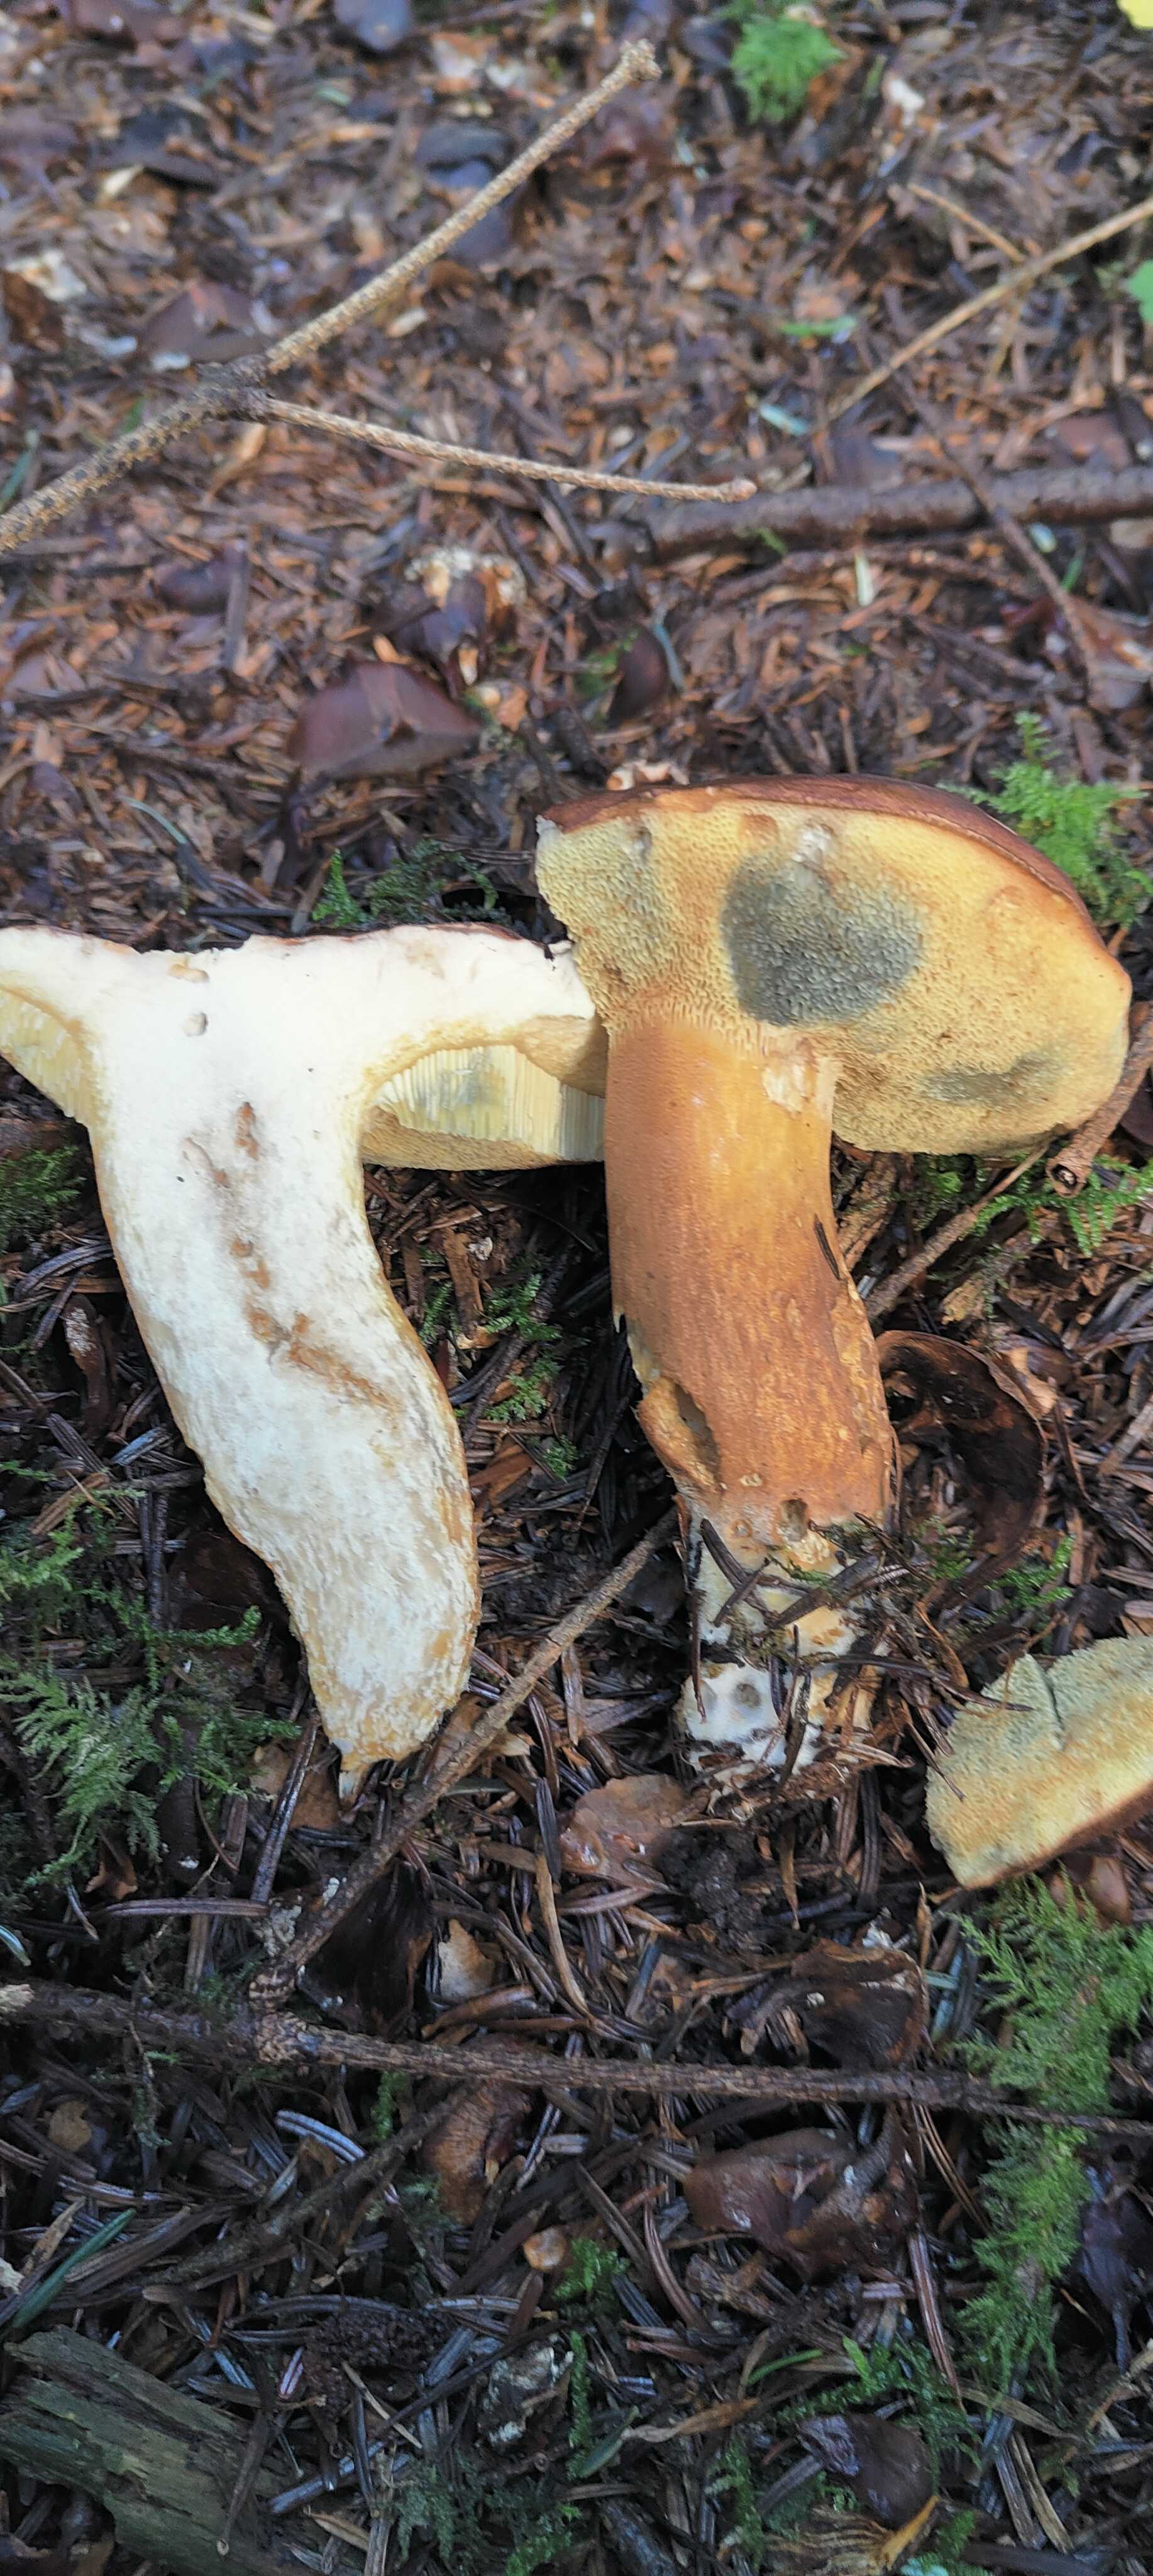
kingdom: Fungi
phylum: Basidiomycota
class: Agaricomycetes
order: Boletales
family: Boletaceae
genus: Imleria
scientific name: Imleria badia
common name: brunstokket rørhat
